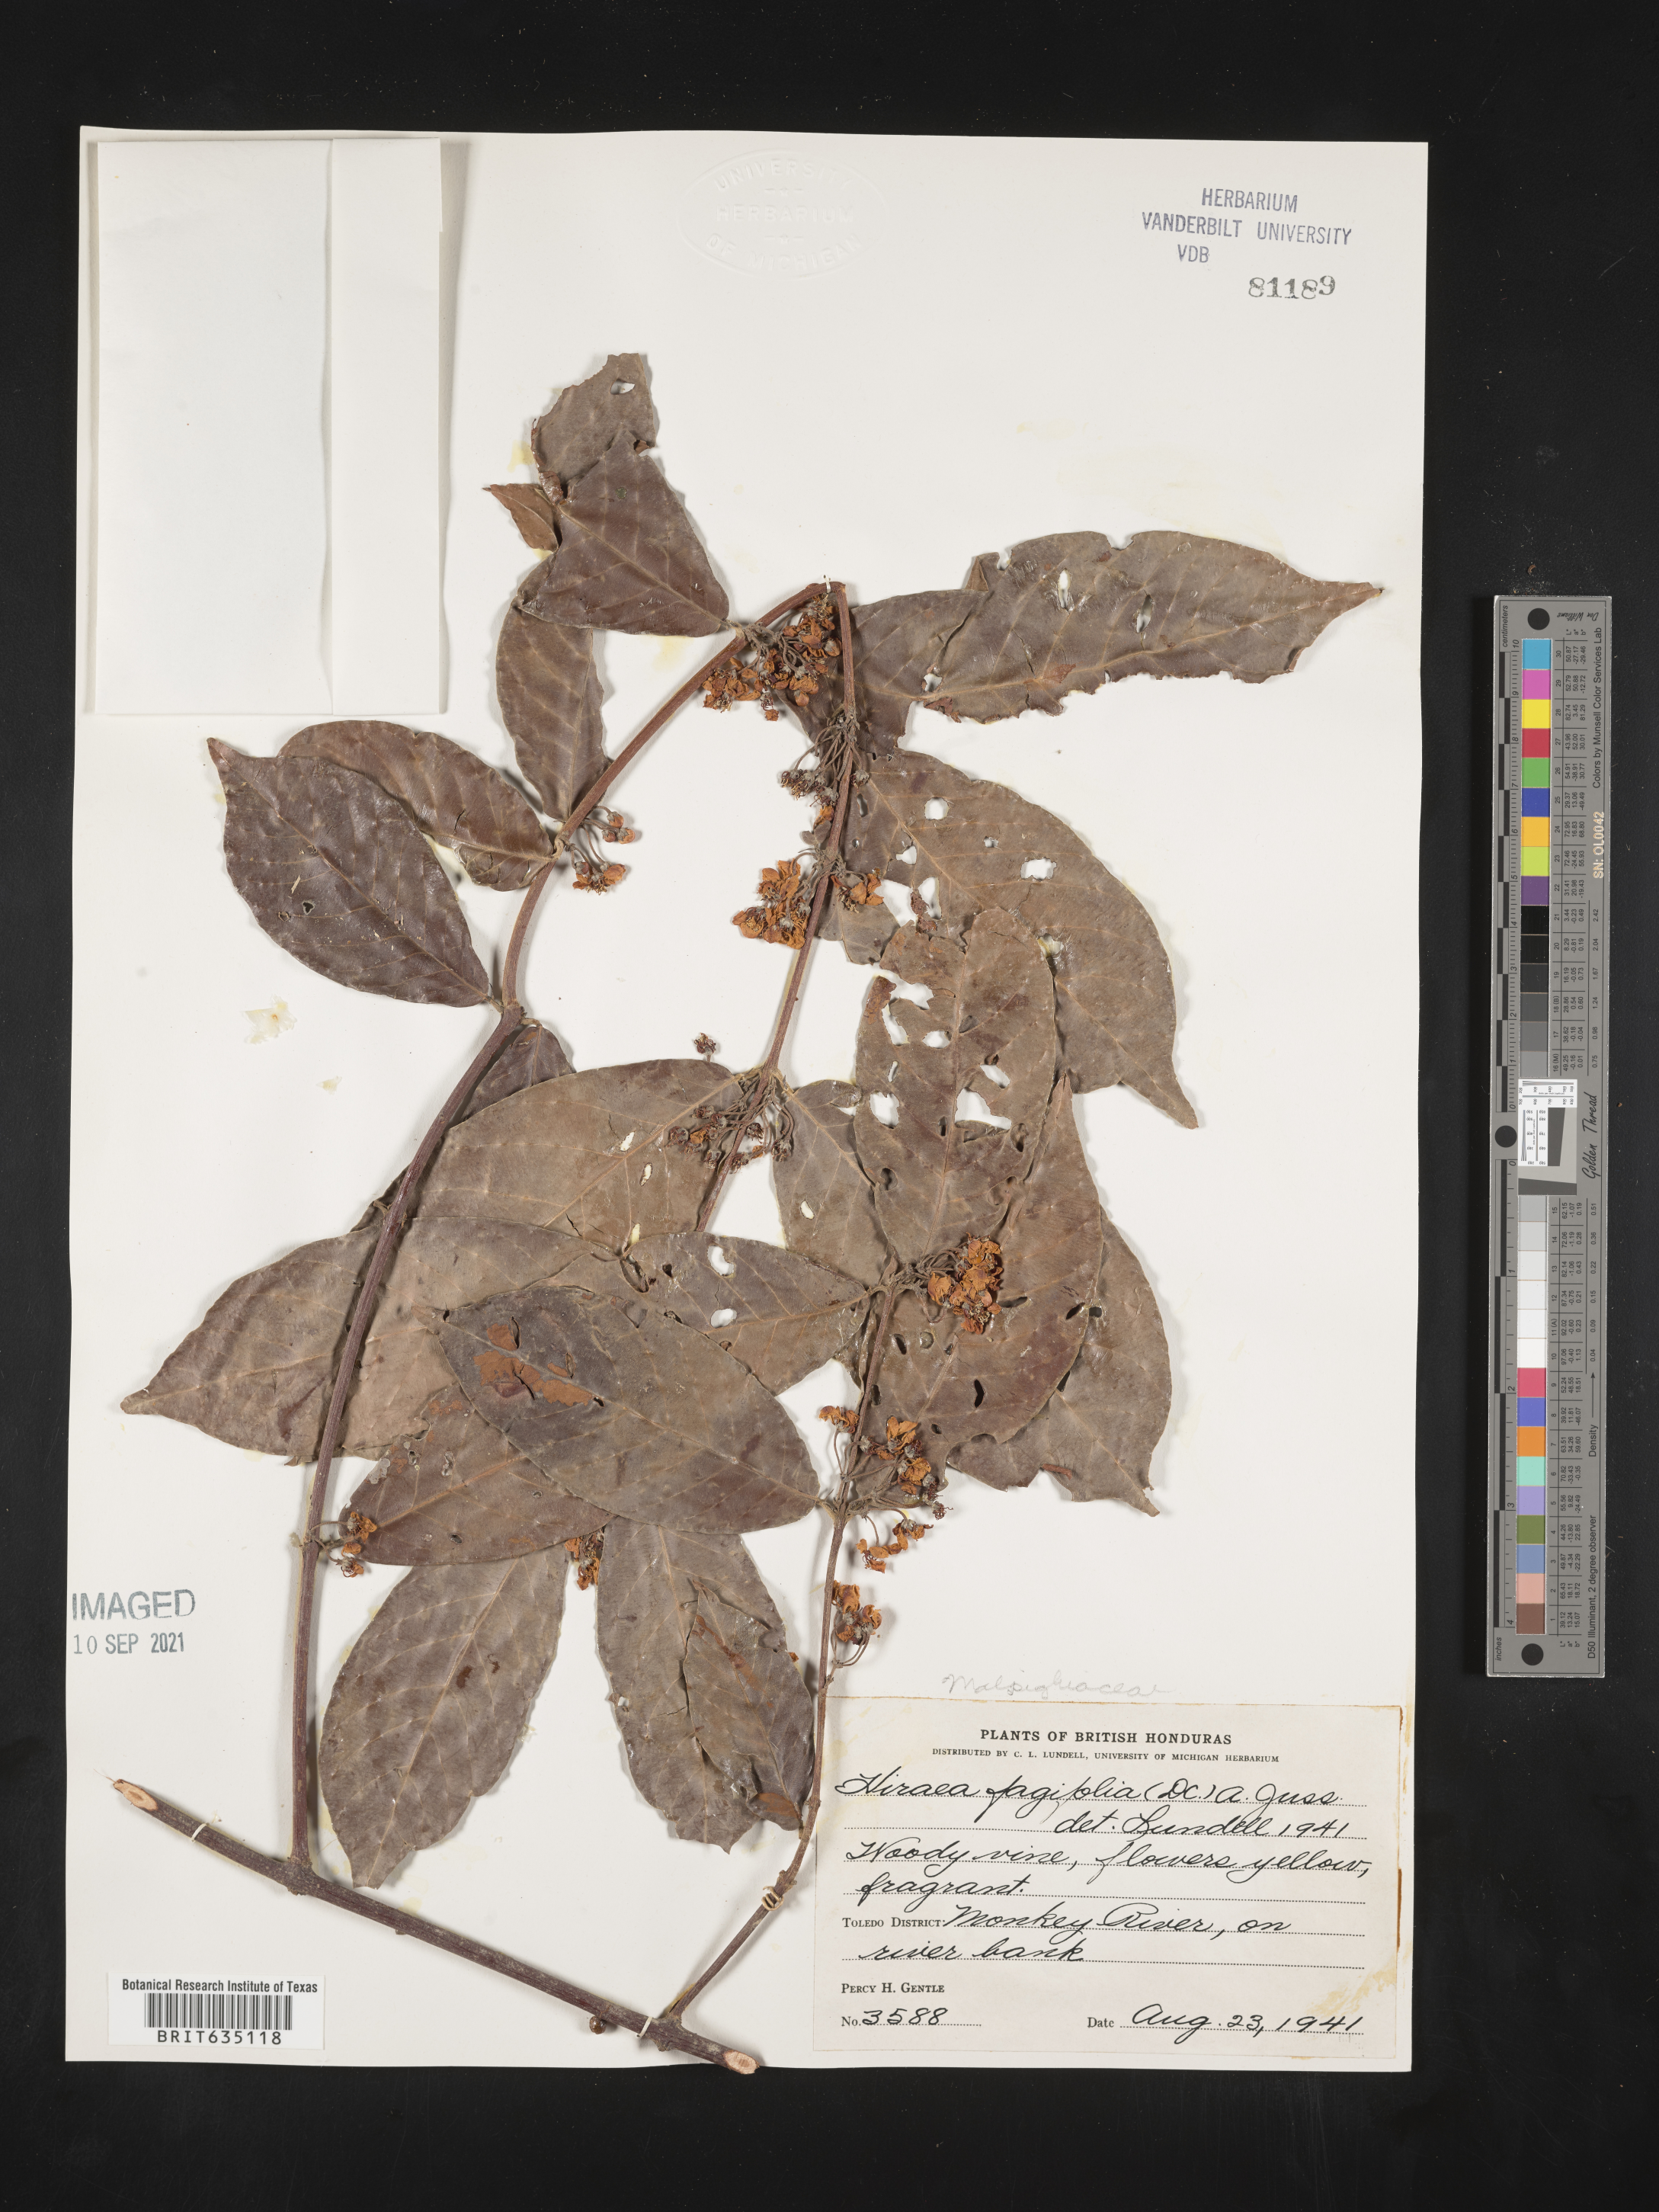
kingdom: Plantae
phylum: Tracheophyta
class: Magnoliopsida
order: Malpighiales
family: Malpighiaceae
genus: Hiraea
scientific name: Hiraea
